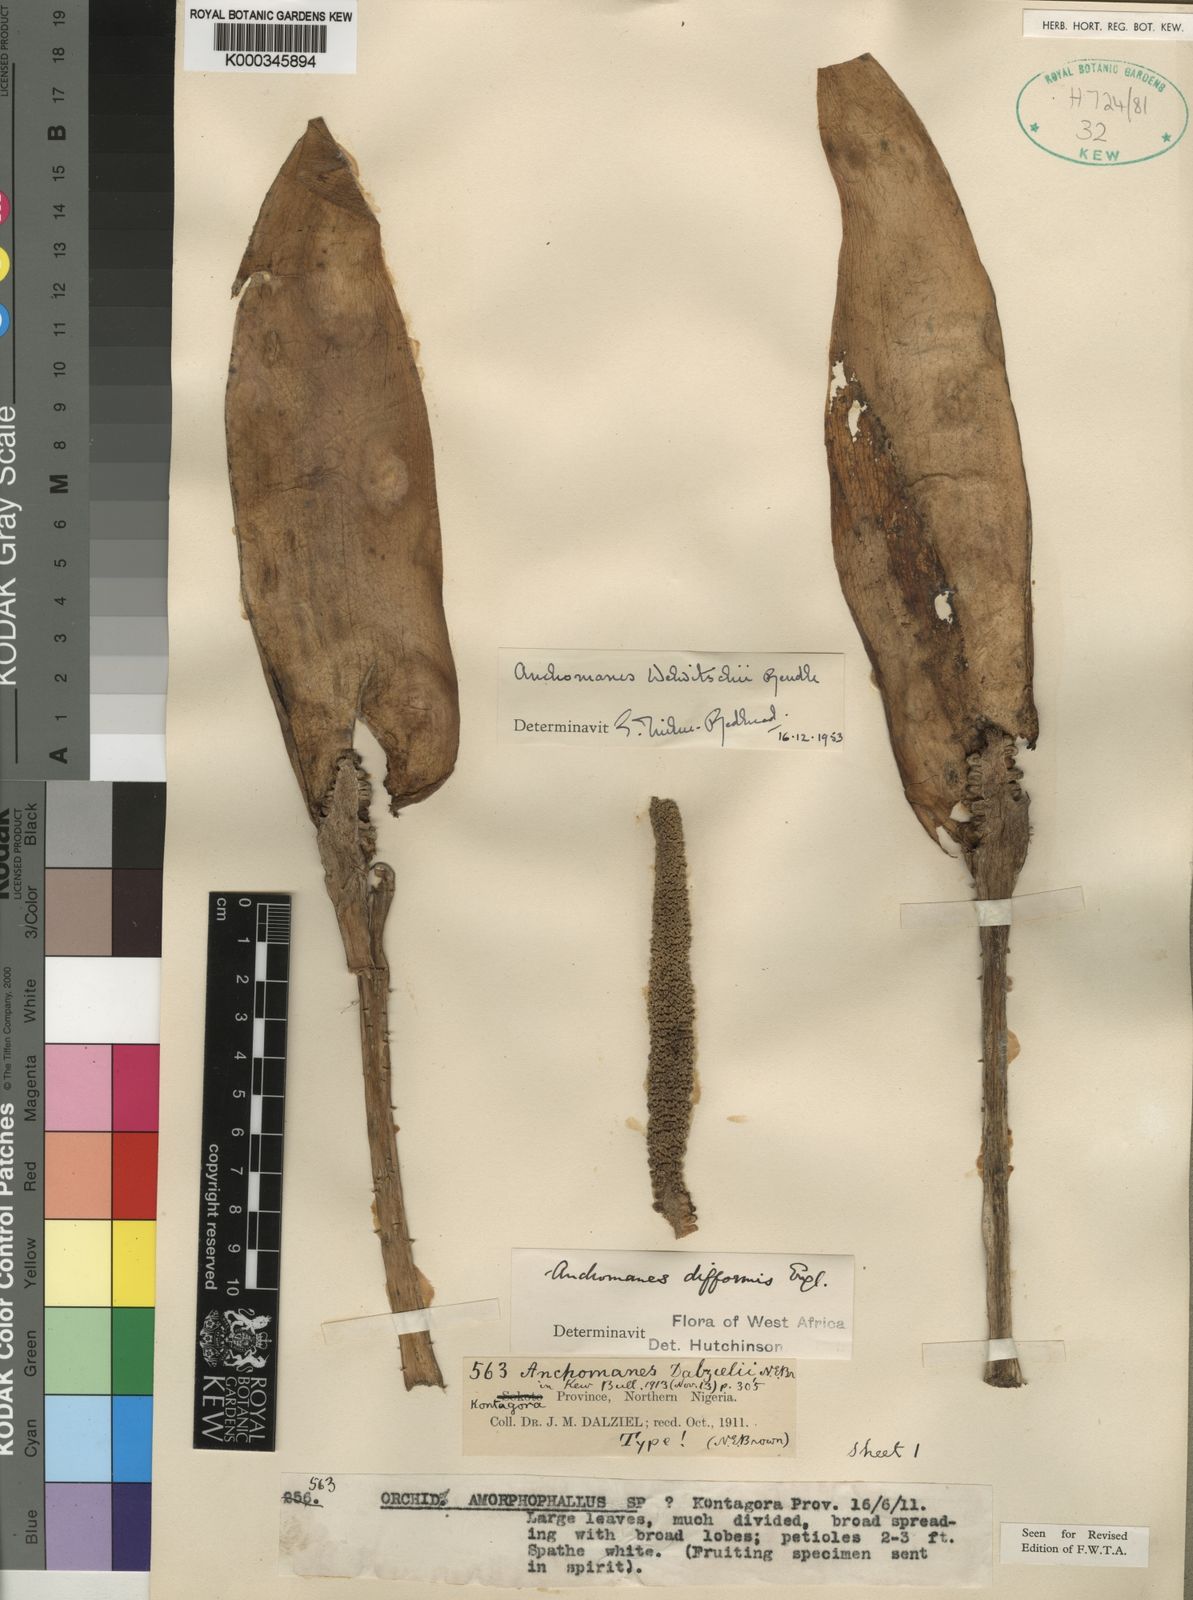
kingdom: Plantae
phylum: Tracheophyta
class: Liliopsida
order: Alismatales
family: Araceae
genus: Anchomanes
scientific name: Anchomanes dalzielii
